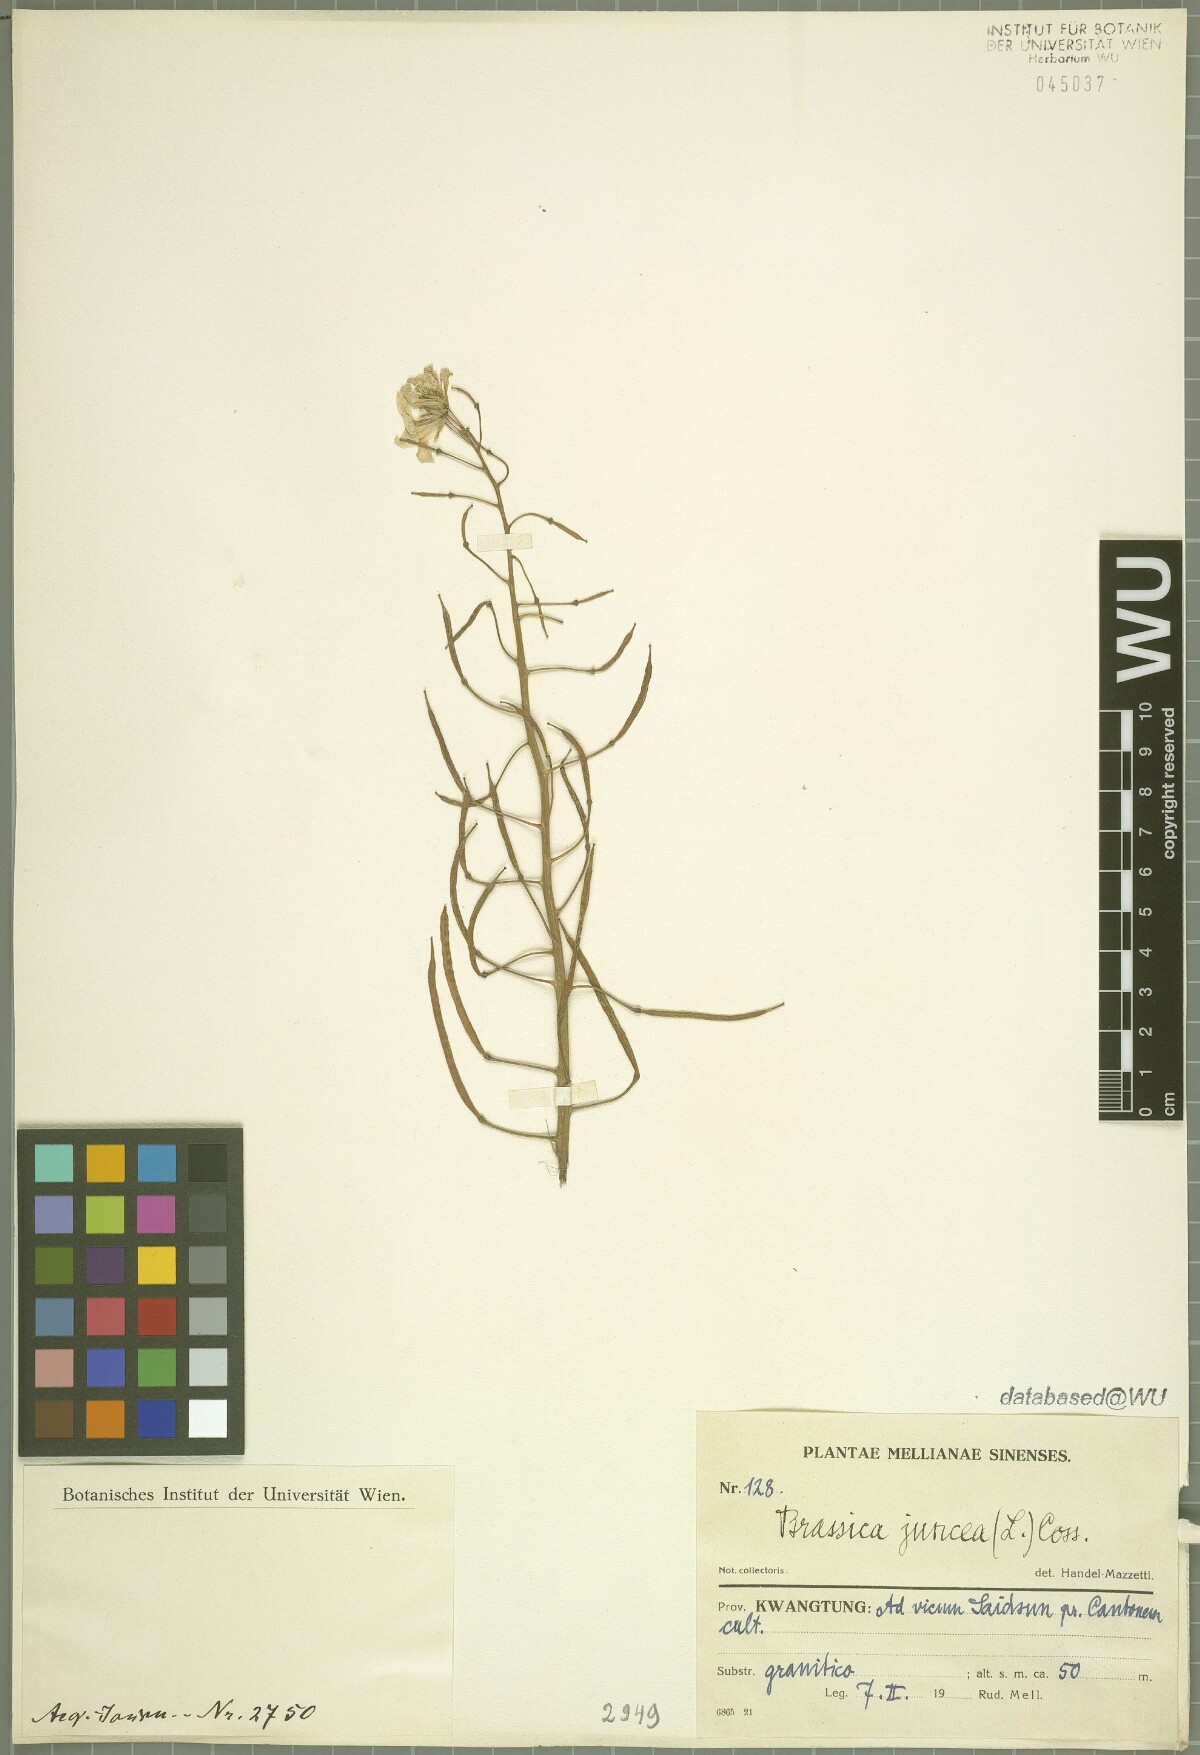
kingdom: Plantae
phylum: Tracheophyta
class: Magnoliopsida
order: Brassicales
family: Brassicaceae
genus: Brassica
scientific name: Brassica juncea
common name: Brown mustard
